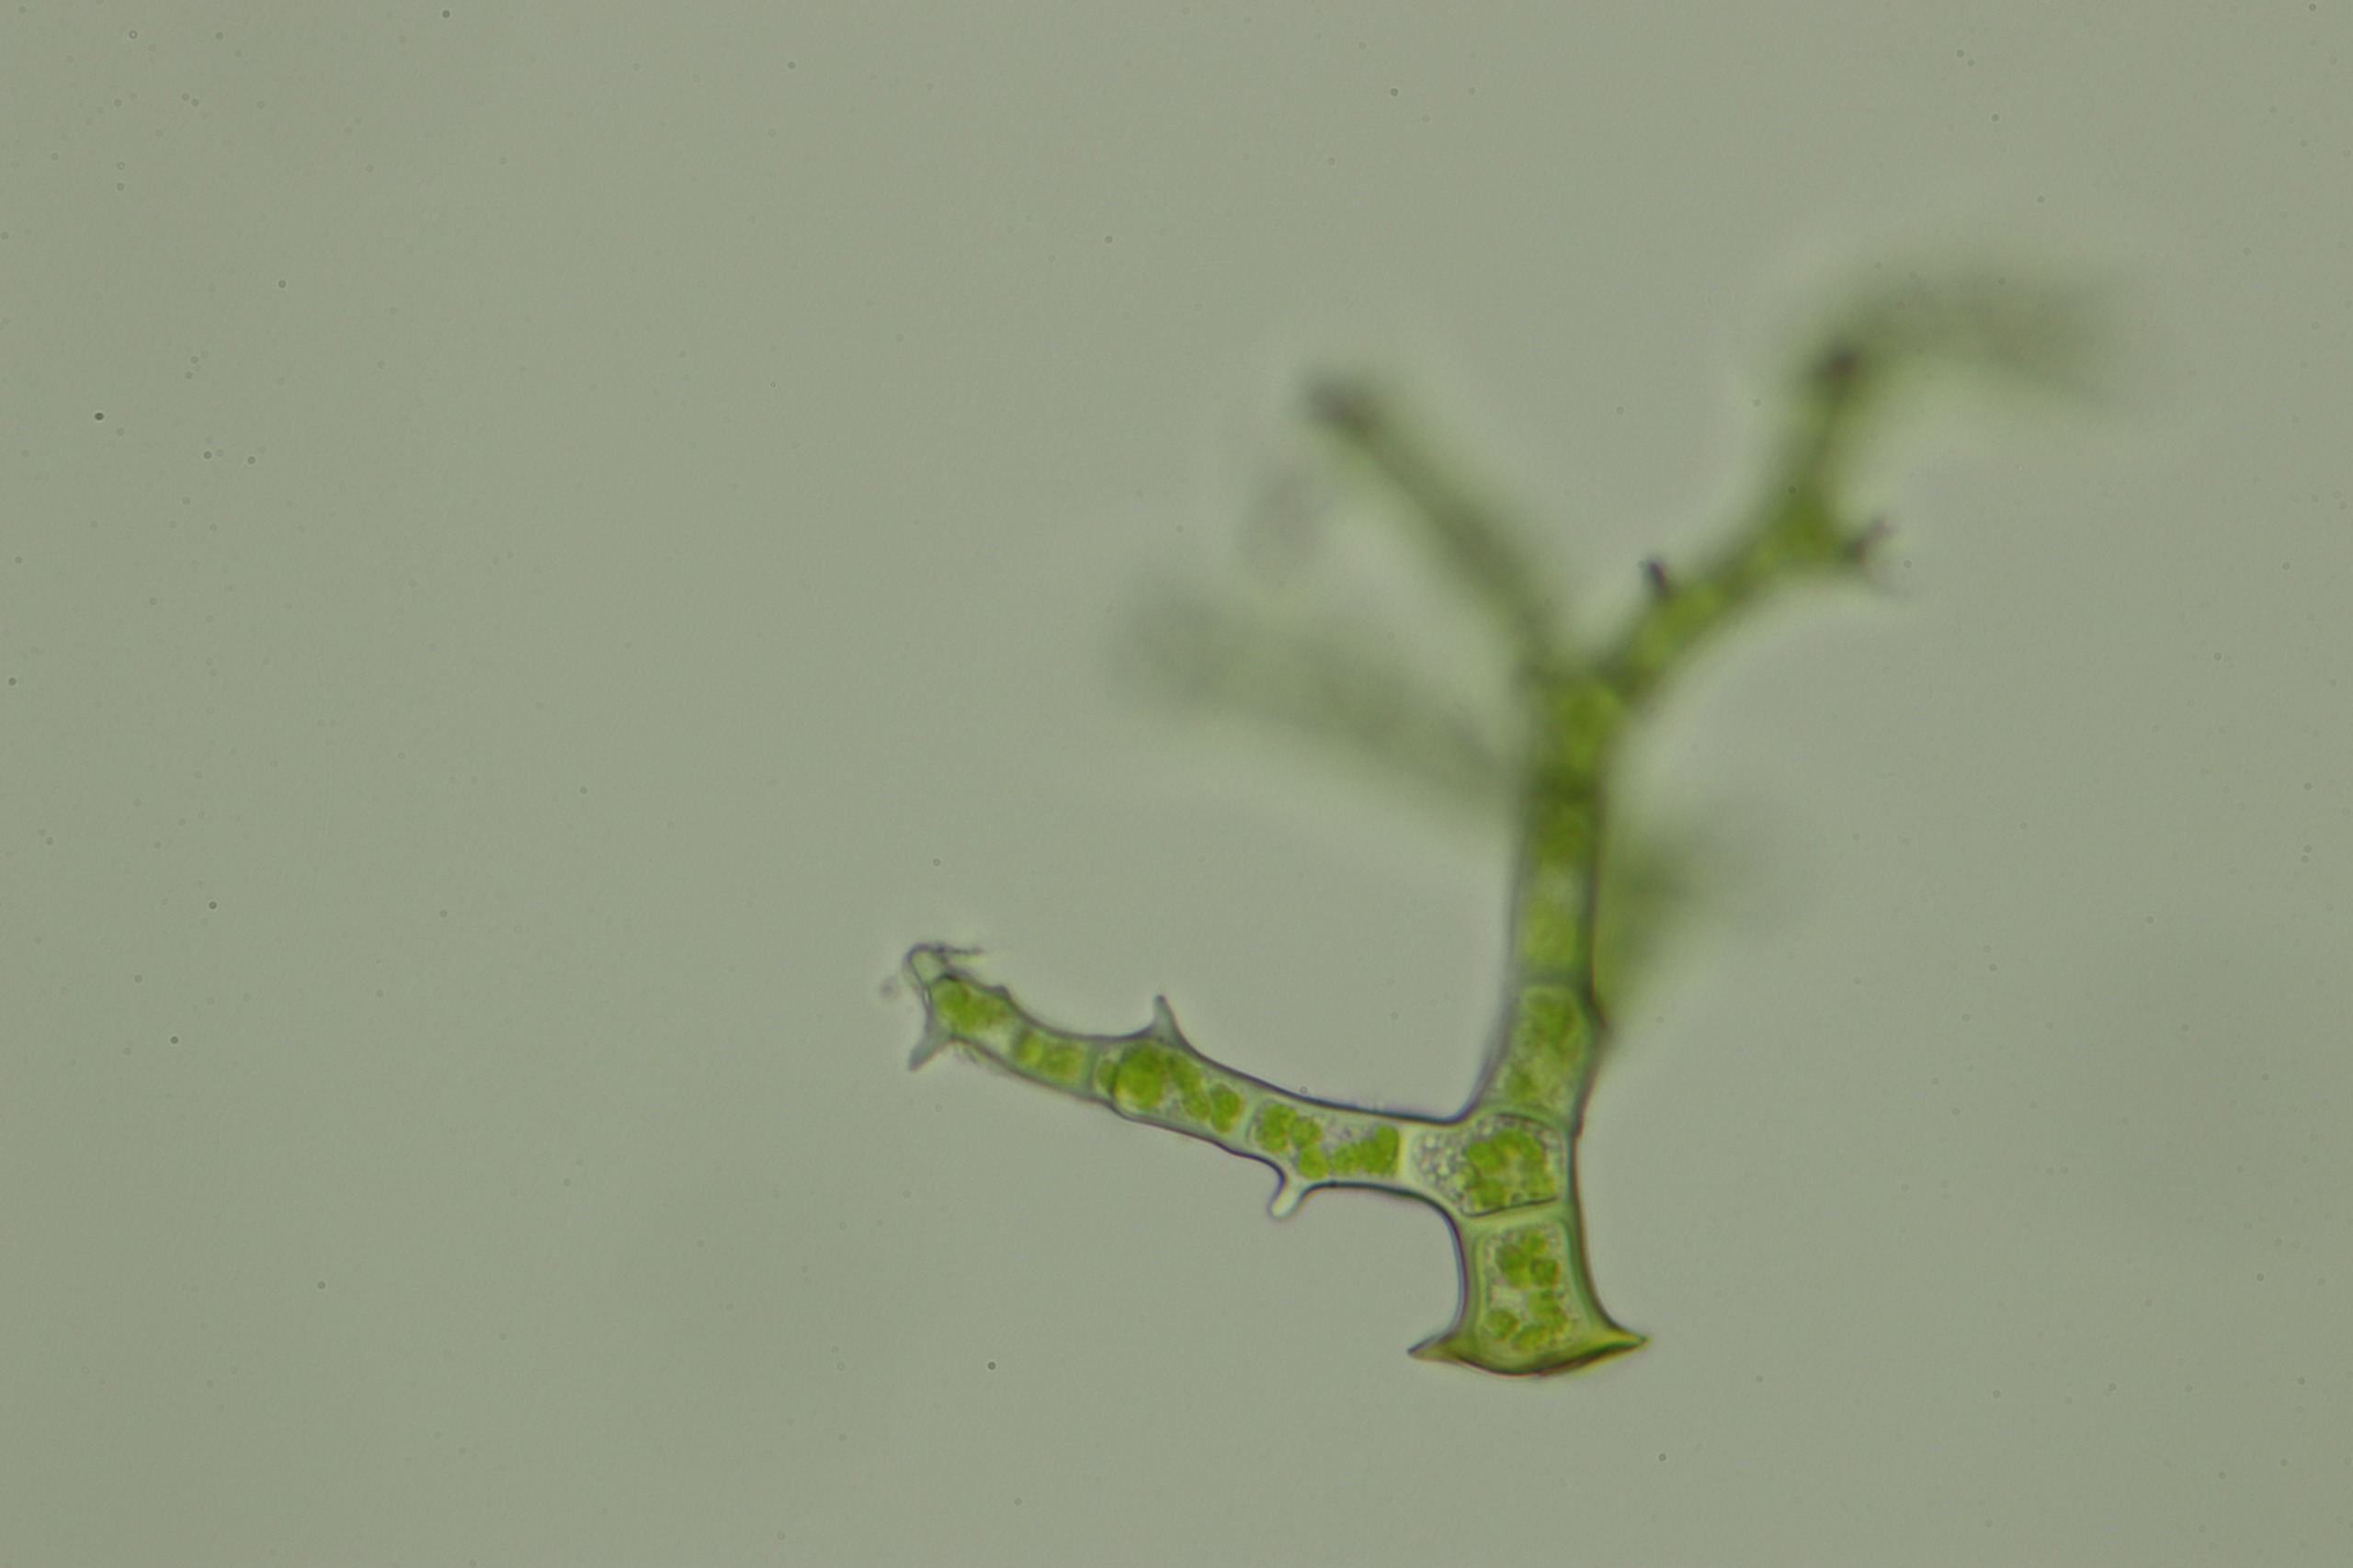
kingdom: Plantae
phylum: Bryophyta
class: Bryopsida
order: Hypnales
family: Thuidiaceae
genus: Thuidium
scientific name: Thuidium delicatulum
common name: Fingrenet bregnemos
